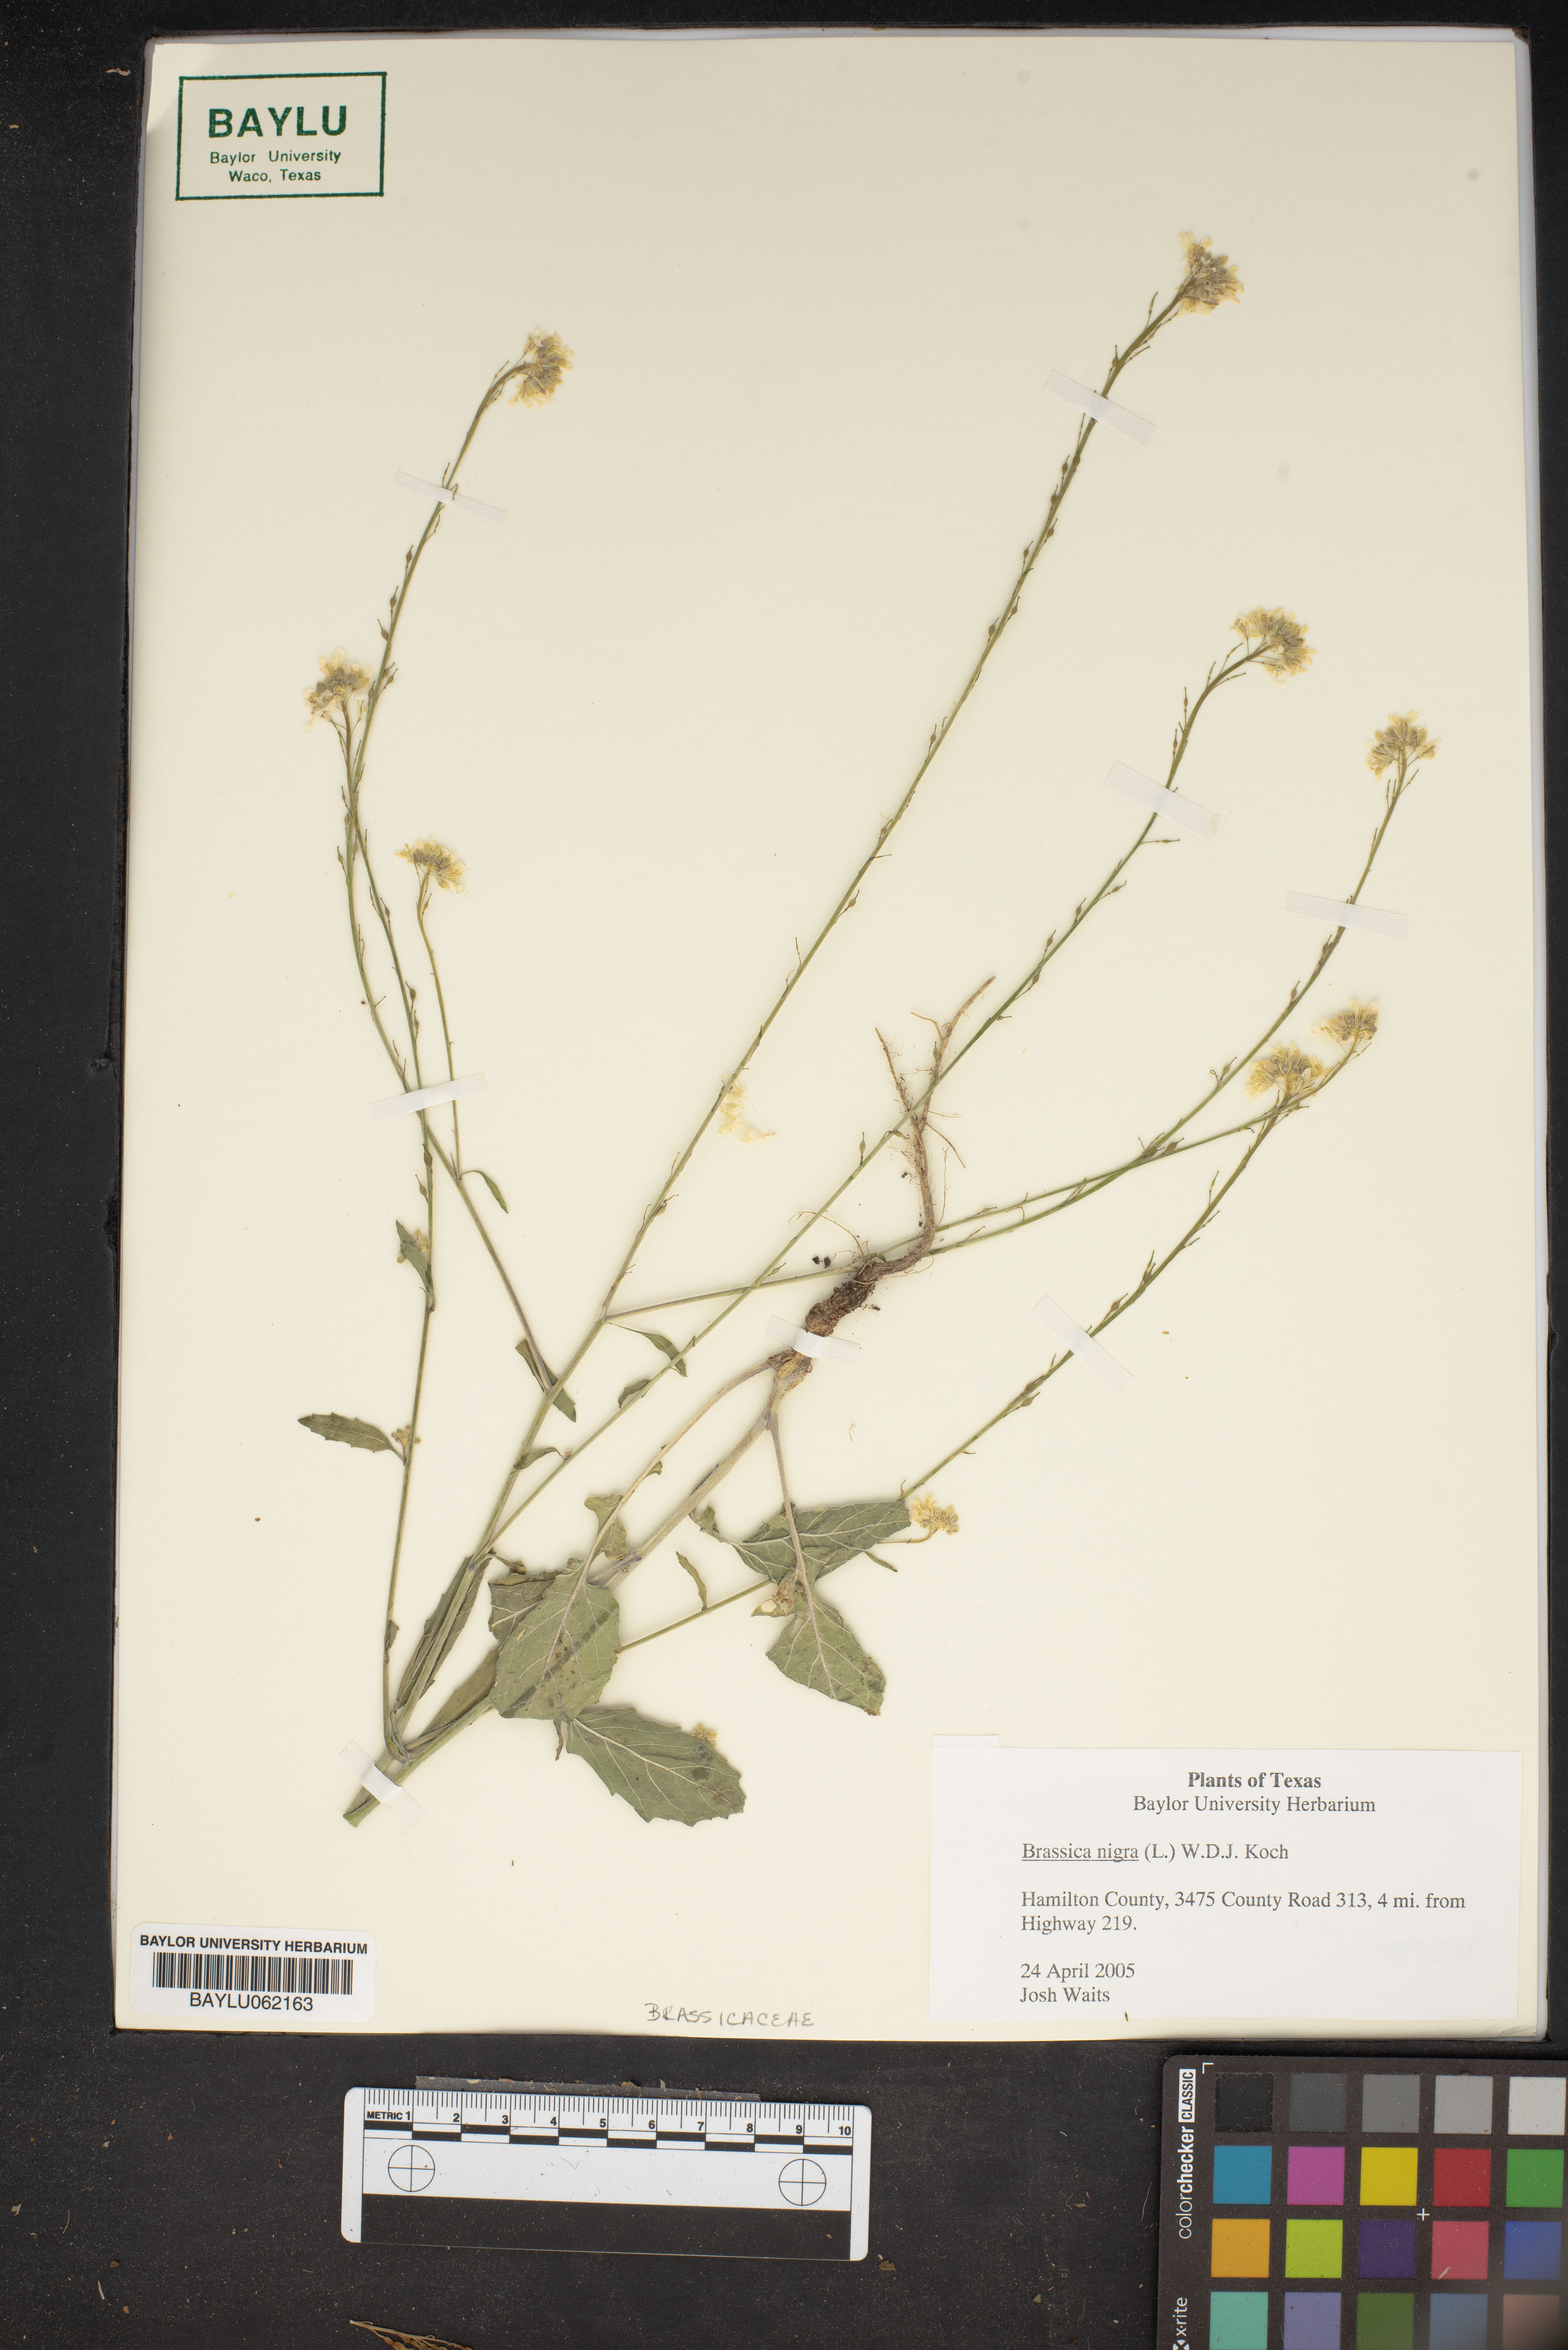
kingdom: Plantae
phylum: Tracheophyta
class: Magnoliopsida
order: Brassicales
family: Brassicaceae
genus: Brassica
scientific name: Brassica nigra
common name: Black mustard
